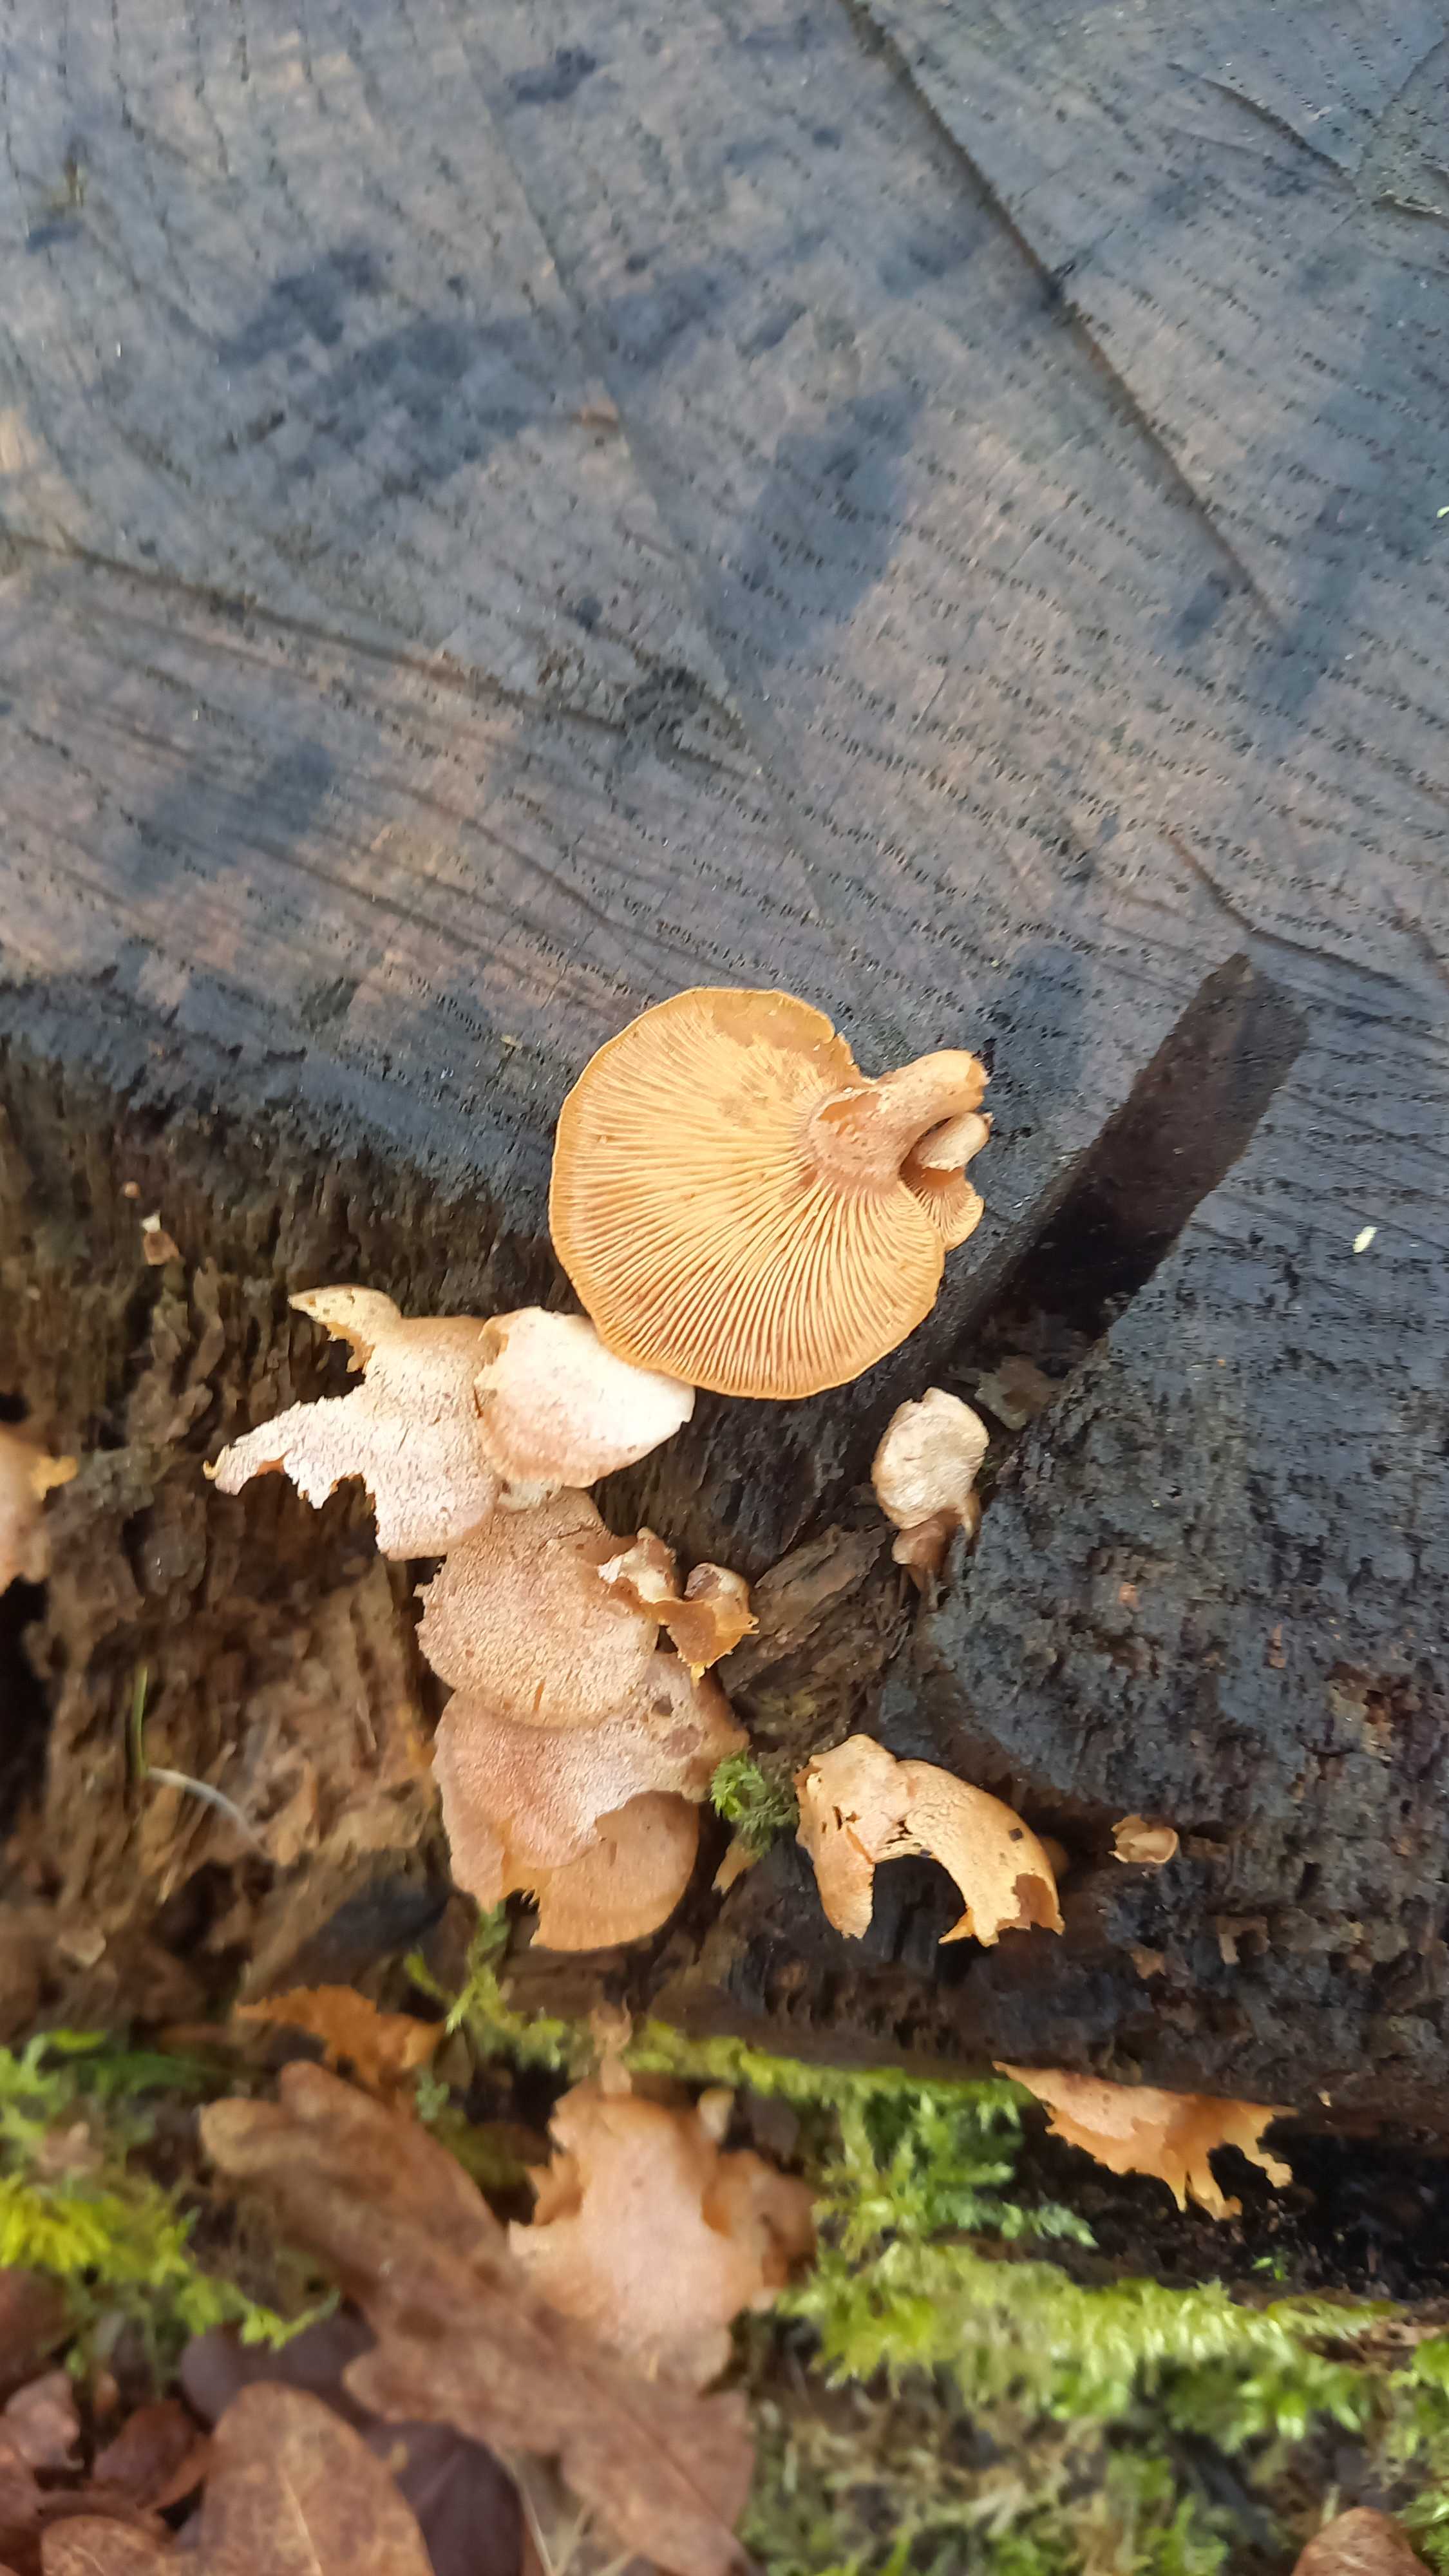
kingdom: Fungi
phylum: Basidiomycota
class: Agaricomycetes
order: Agaricales
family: Mycenaceae
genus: Panellus
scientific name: Panellus stipticus
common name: kliddet epaulethat
